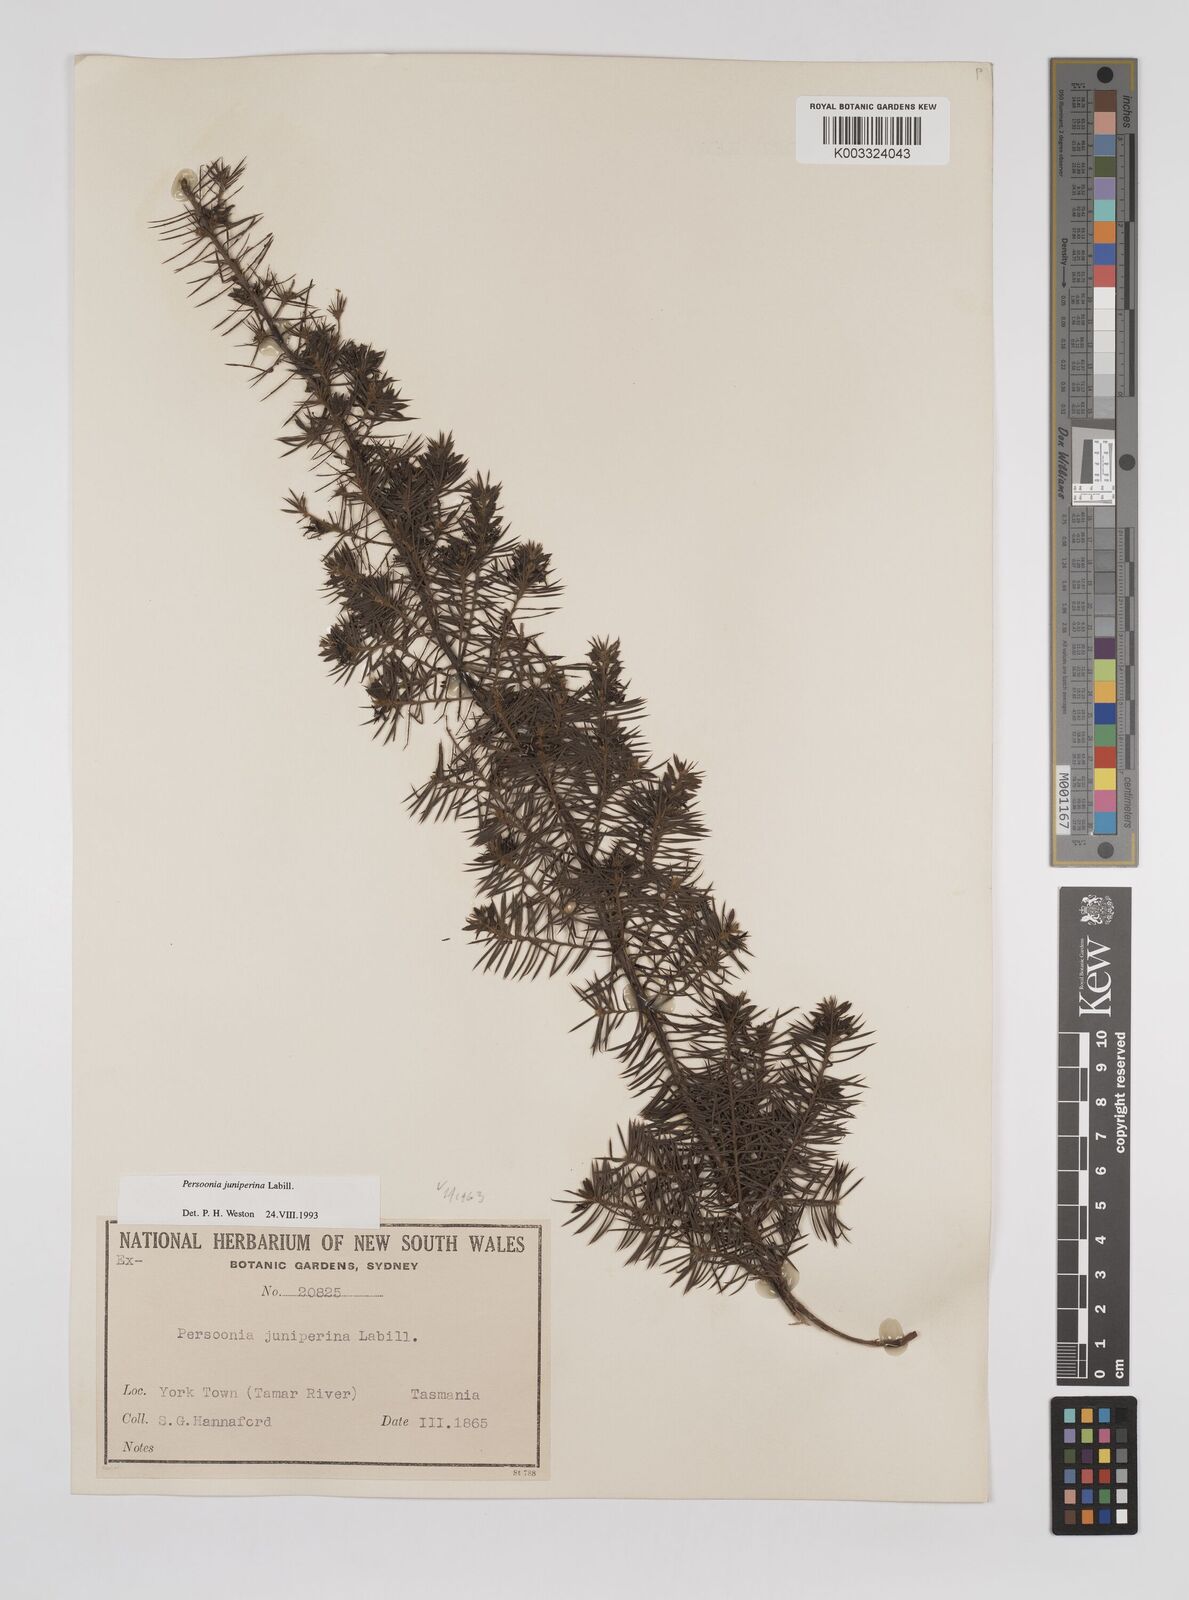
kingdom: Plantae
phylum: Tracheophyta
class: Magnoliopsida
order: Proteales
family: Proteaceae
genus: Persoonia
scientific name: Persoonia juniperina
